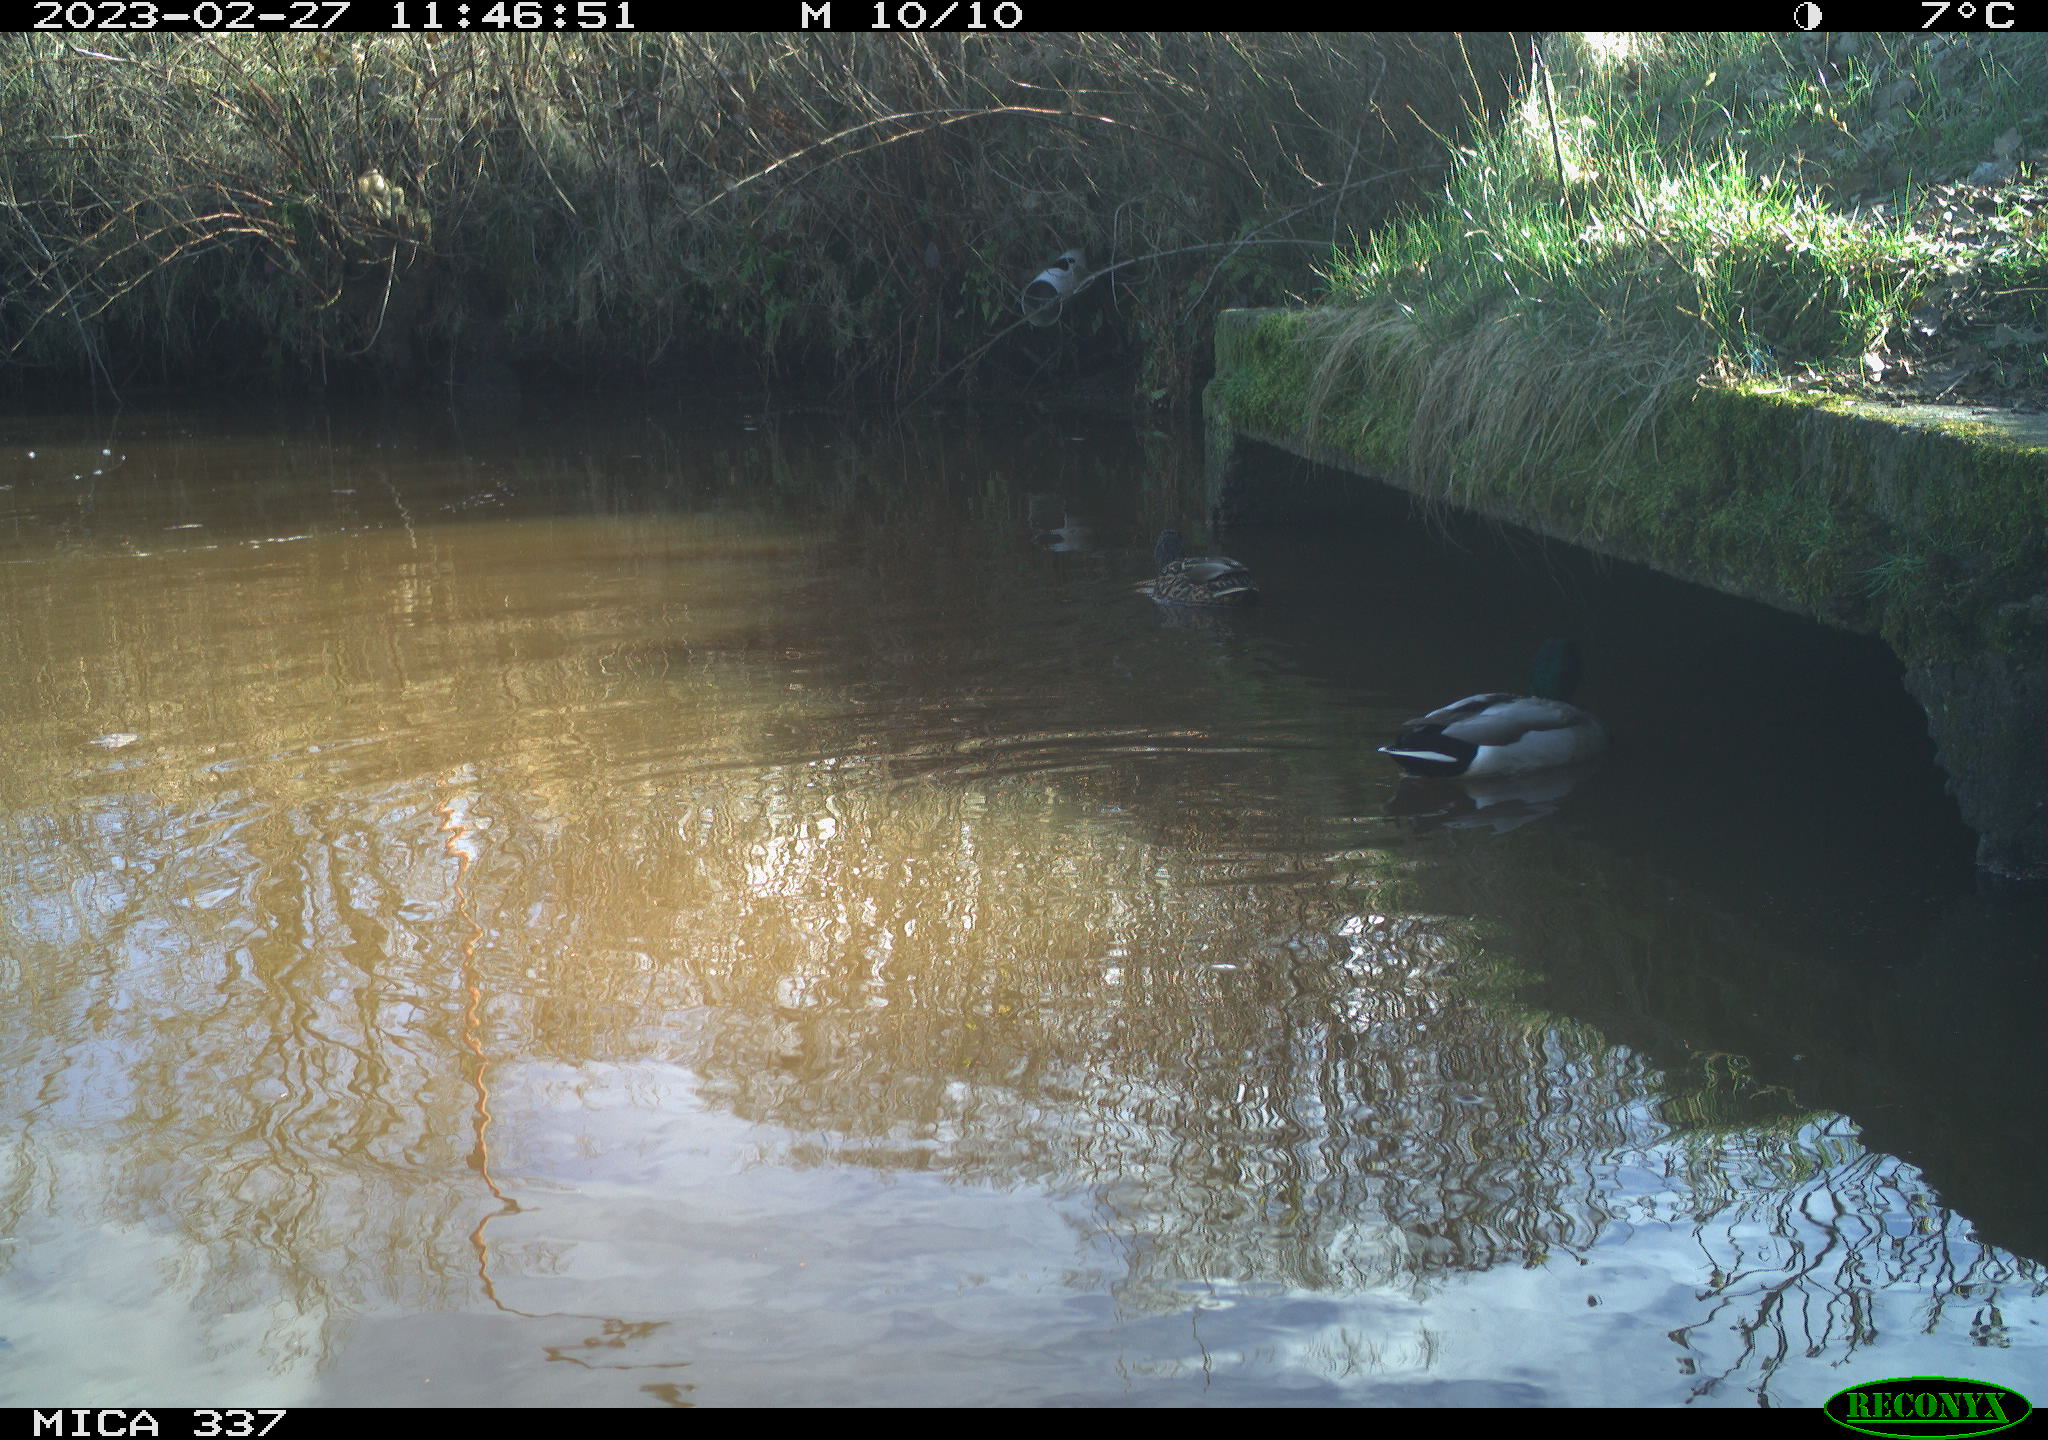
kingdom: Animalia
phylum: Chordata
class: Aves
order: Anseriformes
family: Anatidae
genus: Anas
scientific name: Anas
